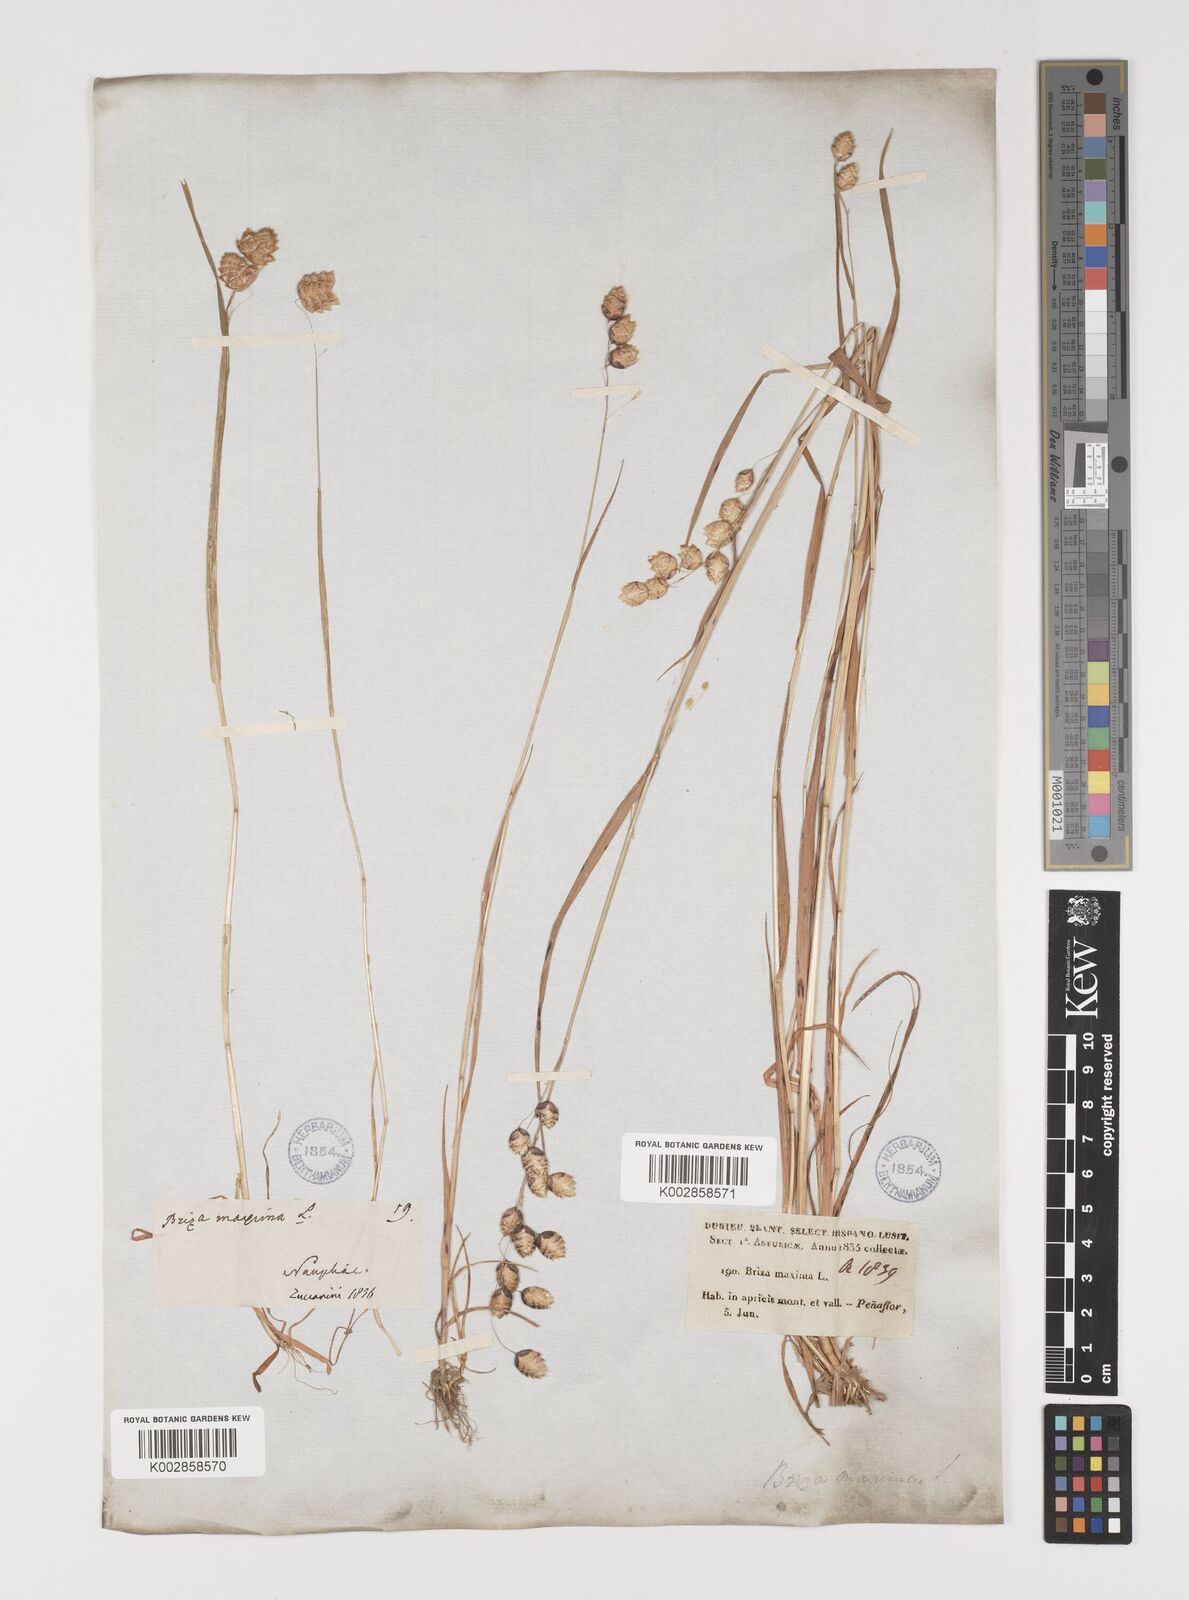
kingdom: Plantae
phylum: Tracheophyta
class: Liliopsida
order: Poales
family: Poaceae
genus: Briza
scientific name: Briza maxima
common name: Big quakinggrass
